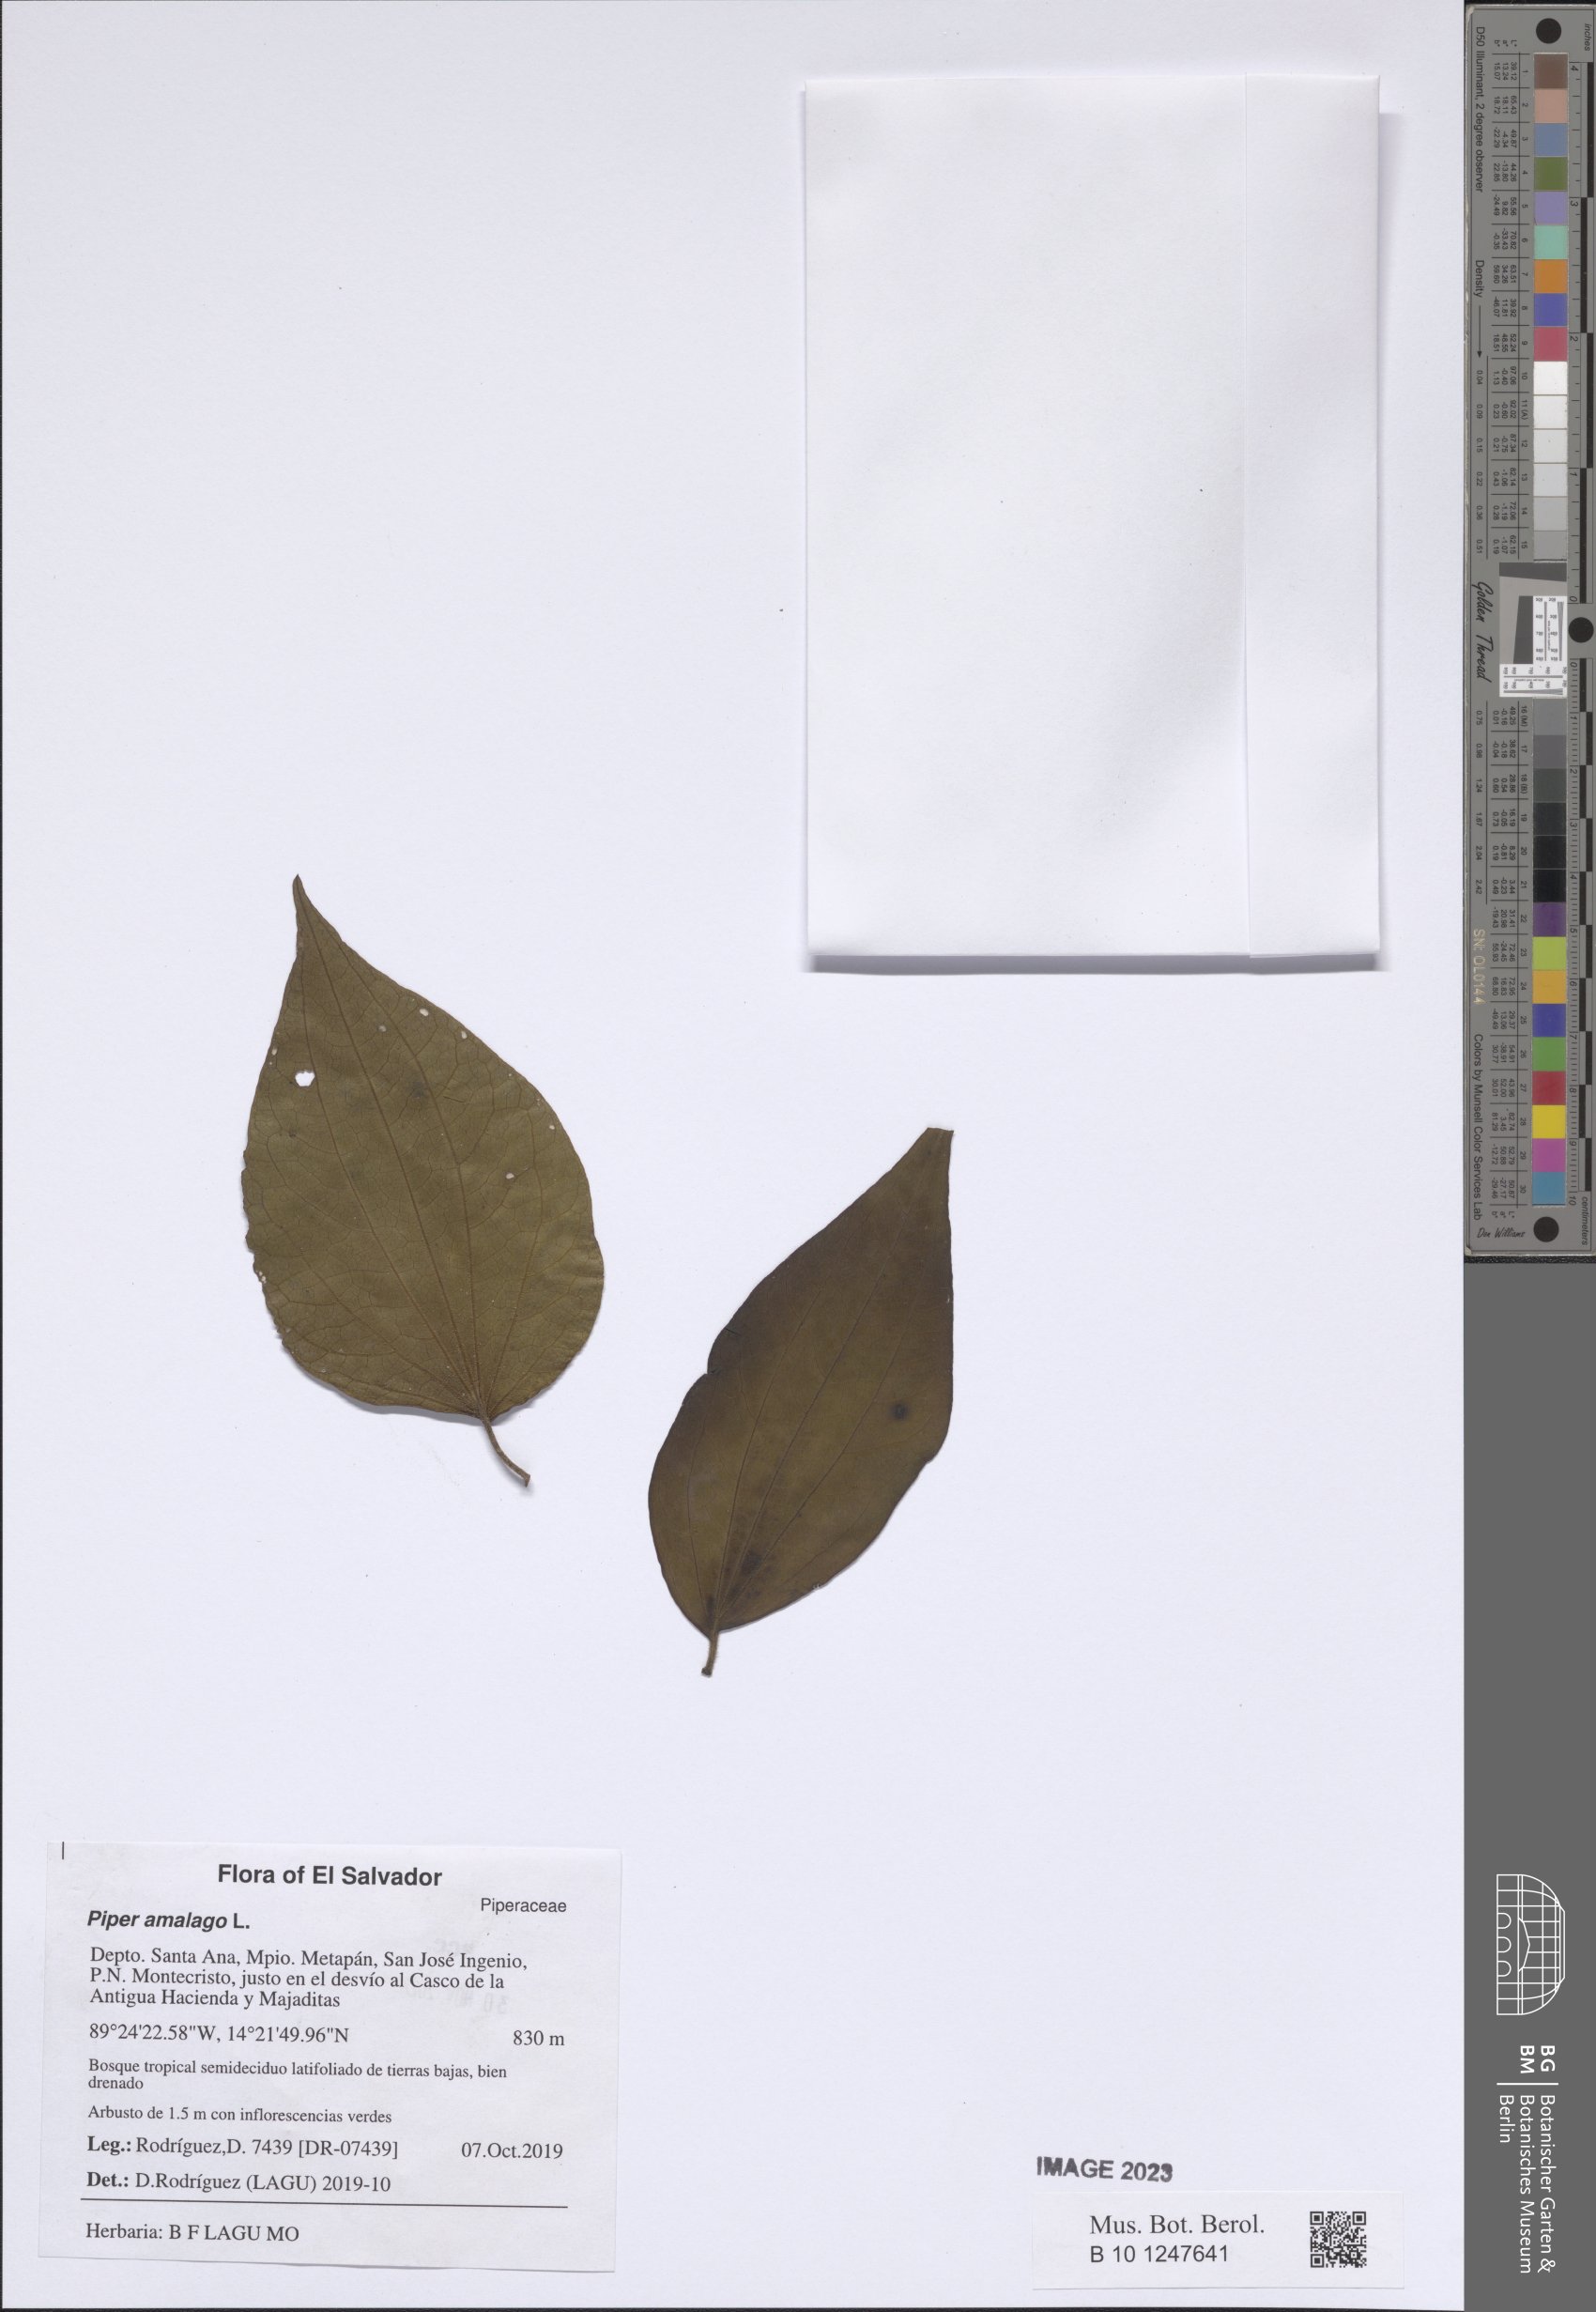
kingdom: Plantae
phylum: Tracheophyta
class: Magnoliopsida
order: Piperales
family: Piperaceae
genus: Piper
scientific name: Piper amalago
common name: Pepper-elder
